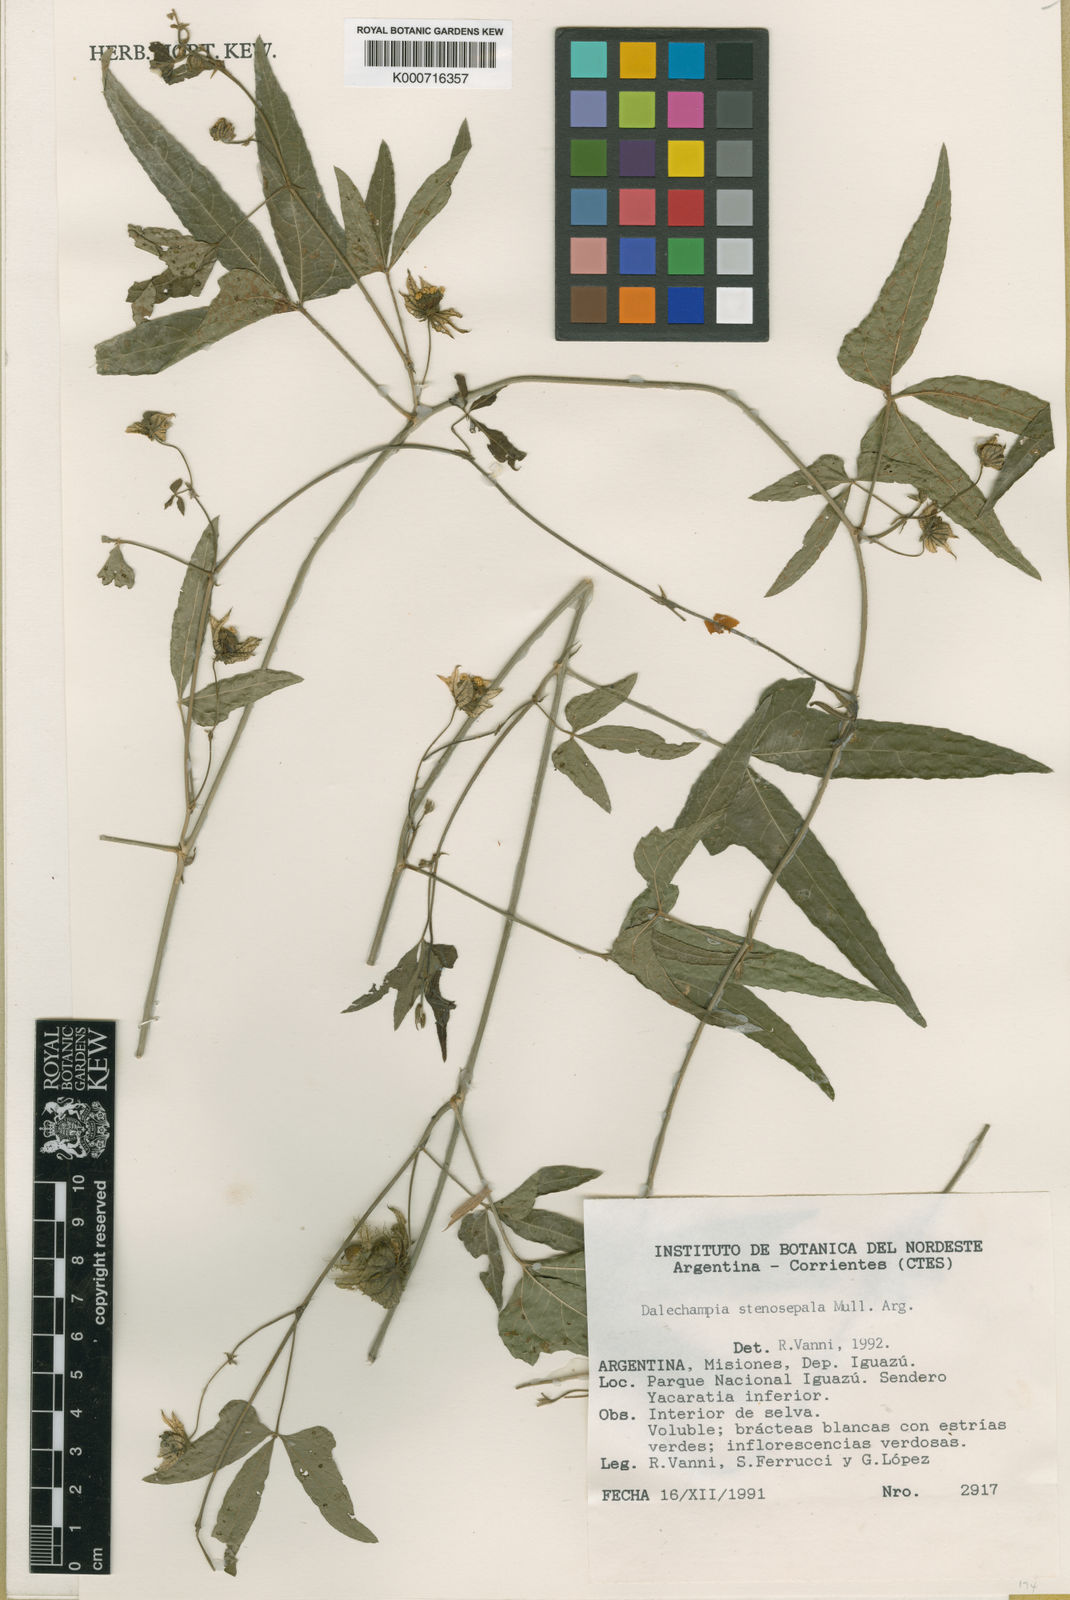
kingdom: Plantae
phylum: Tracheophyta
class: Magnoliopsida
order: Malpighiales
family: Euphorbiaceae
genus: Dalechampia
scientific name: Dalechampia
